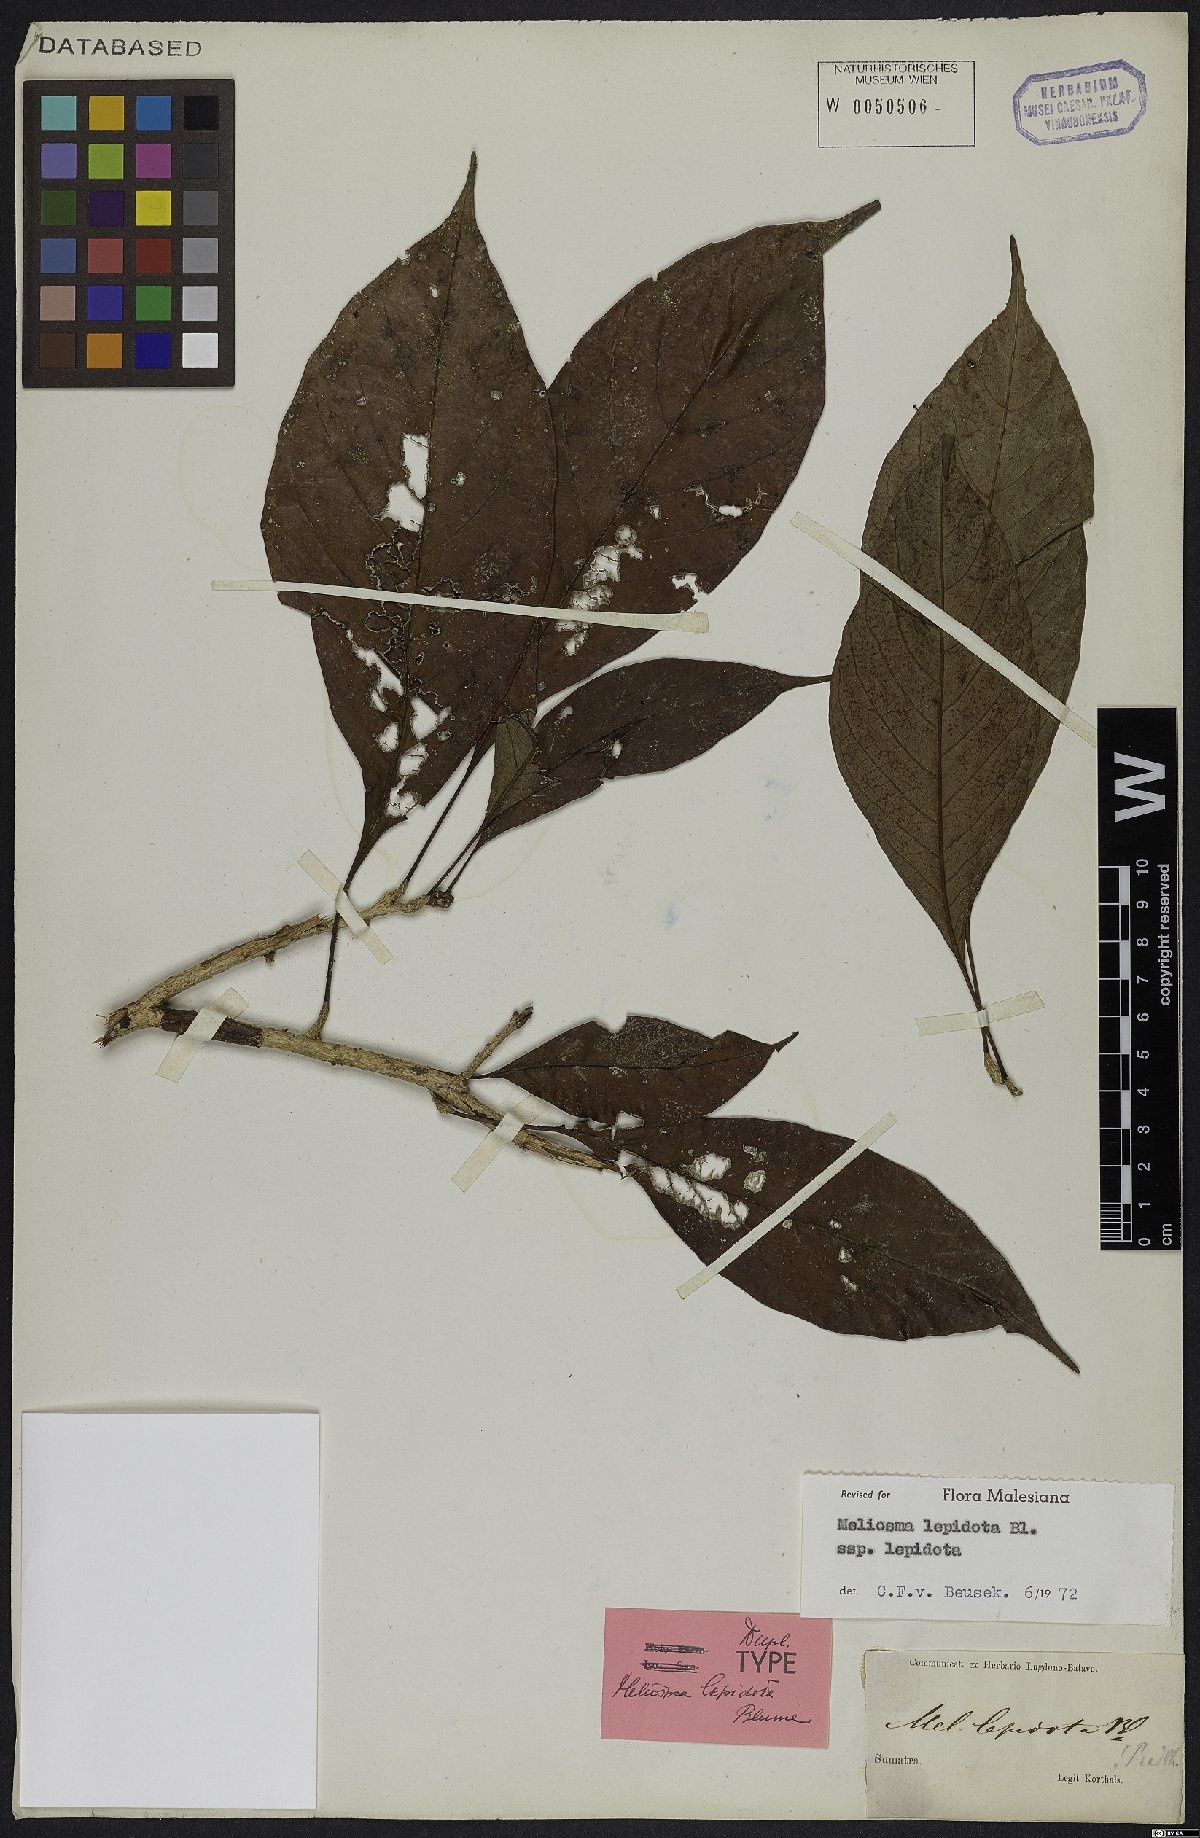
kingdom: Plantae
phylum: Tracheophyta
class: Magnoliopsida
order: Proteales
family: Sabiaceae
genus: Meliosma
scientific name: Meliosma lepidota
